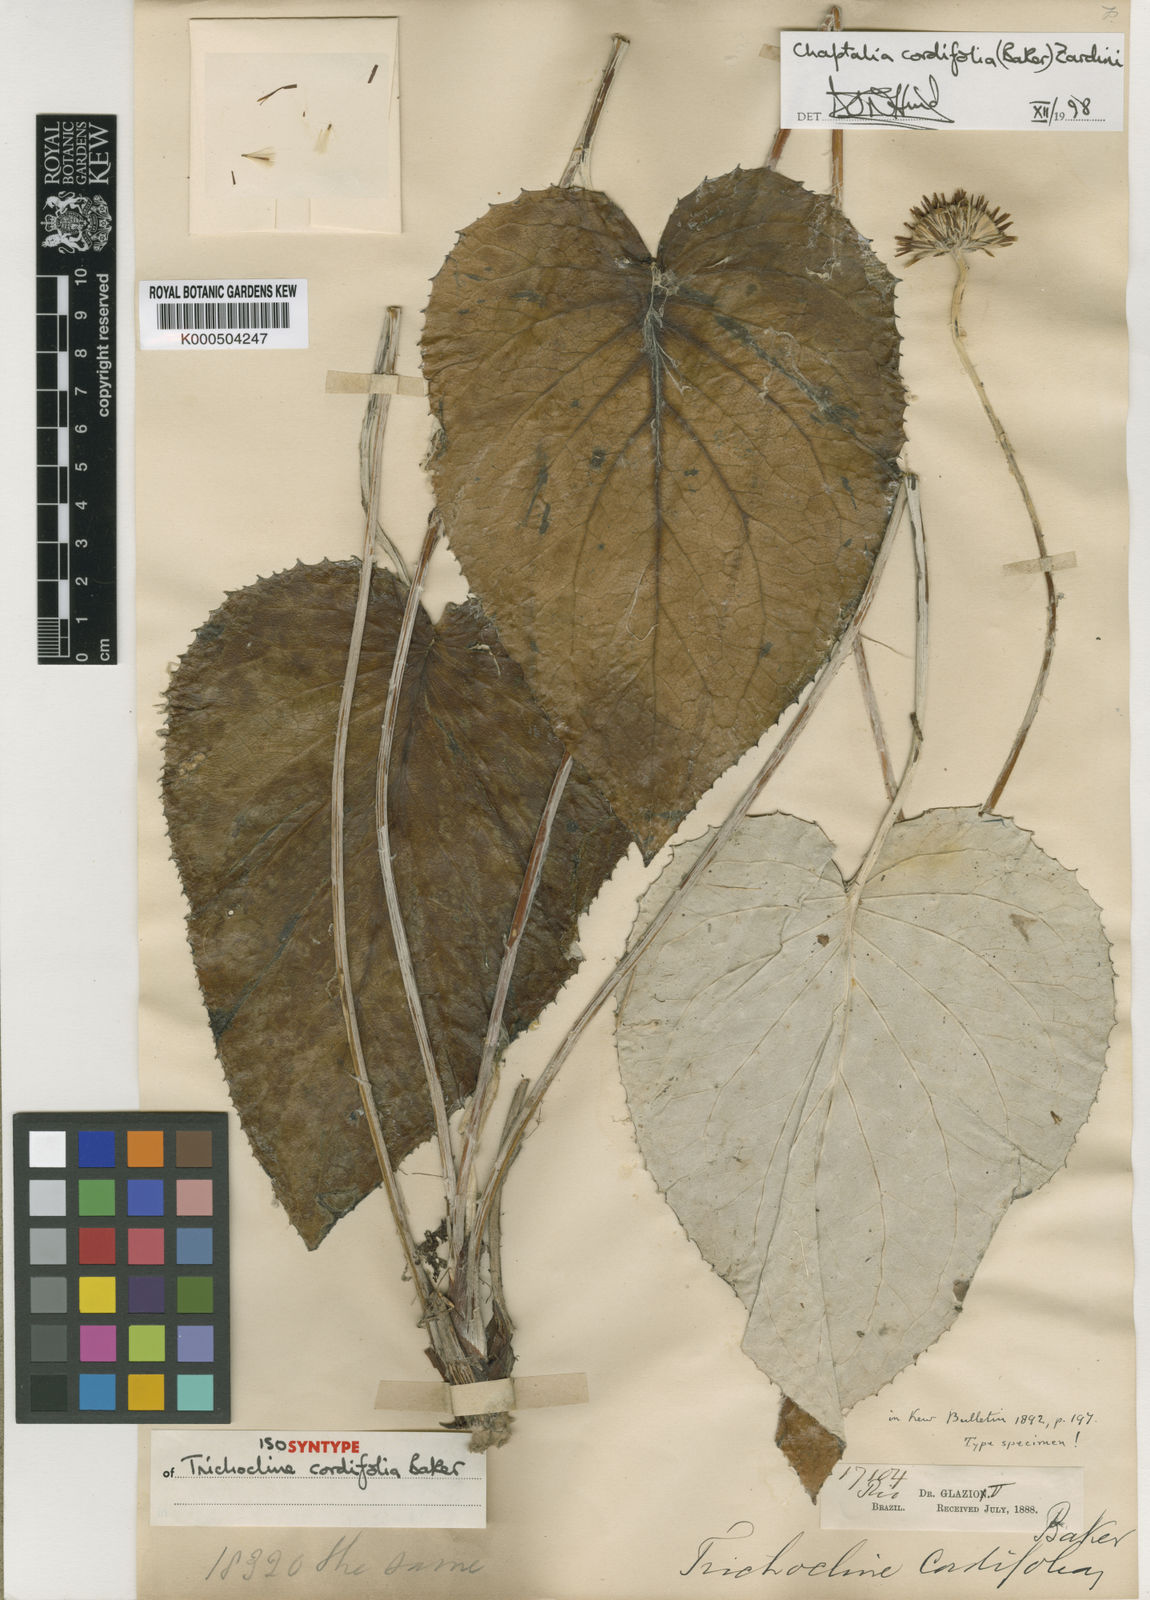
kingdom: Plantae
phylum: Tracheophyta
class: Magnoliopsida
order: Asterales
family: Asteraceae
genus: Chaptalia
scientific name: Chaptalia cordifolia
